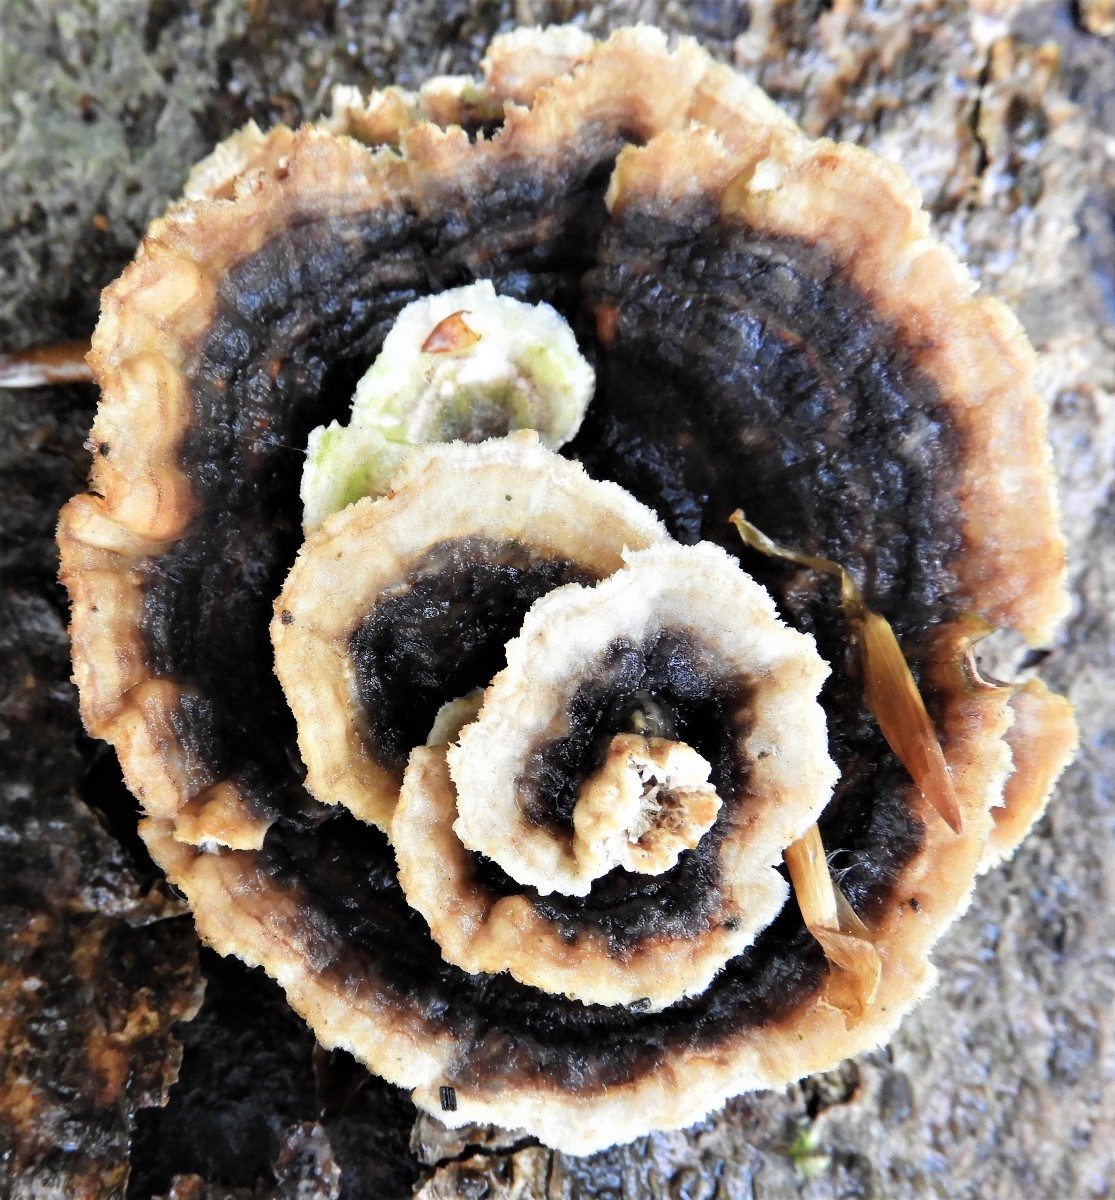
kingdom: Fungi
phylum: Basidiomycota
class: Agaricomycetes
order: Polyporales
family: Polyporaceae
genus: Trametes
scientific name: Trametes versicolor
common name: broget læderporesvamp
